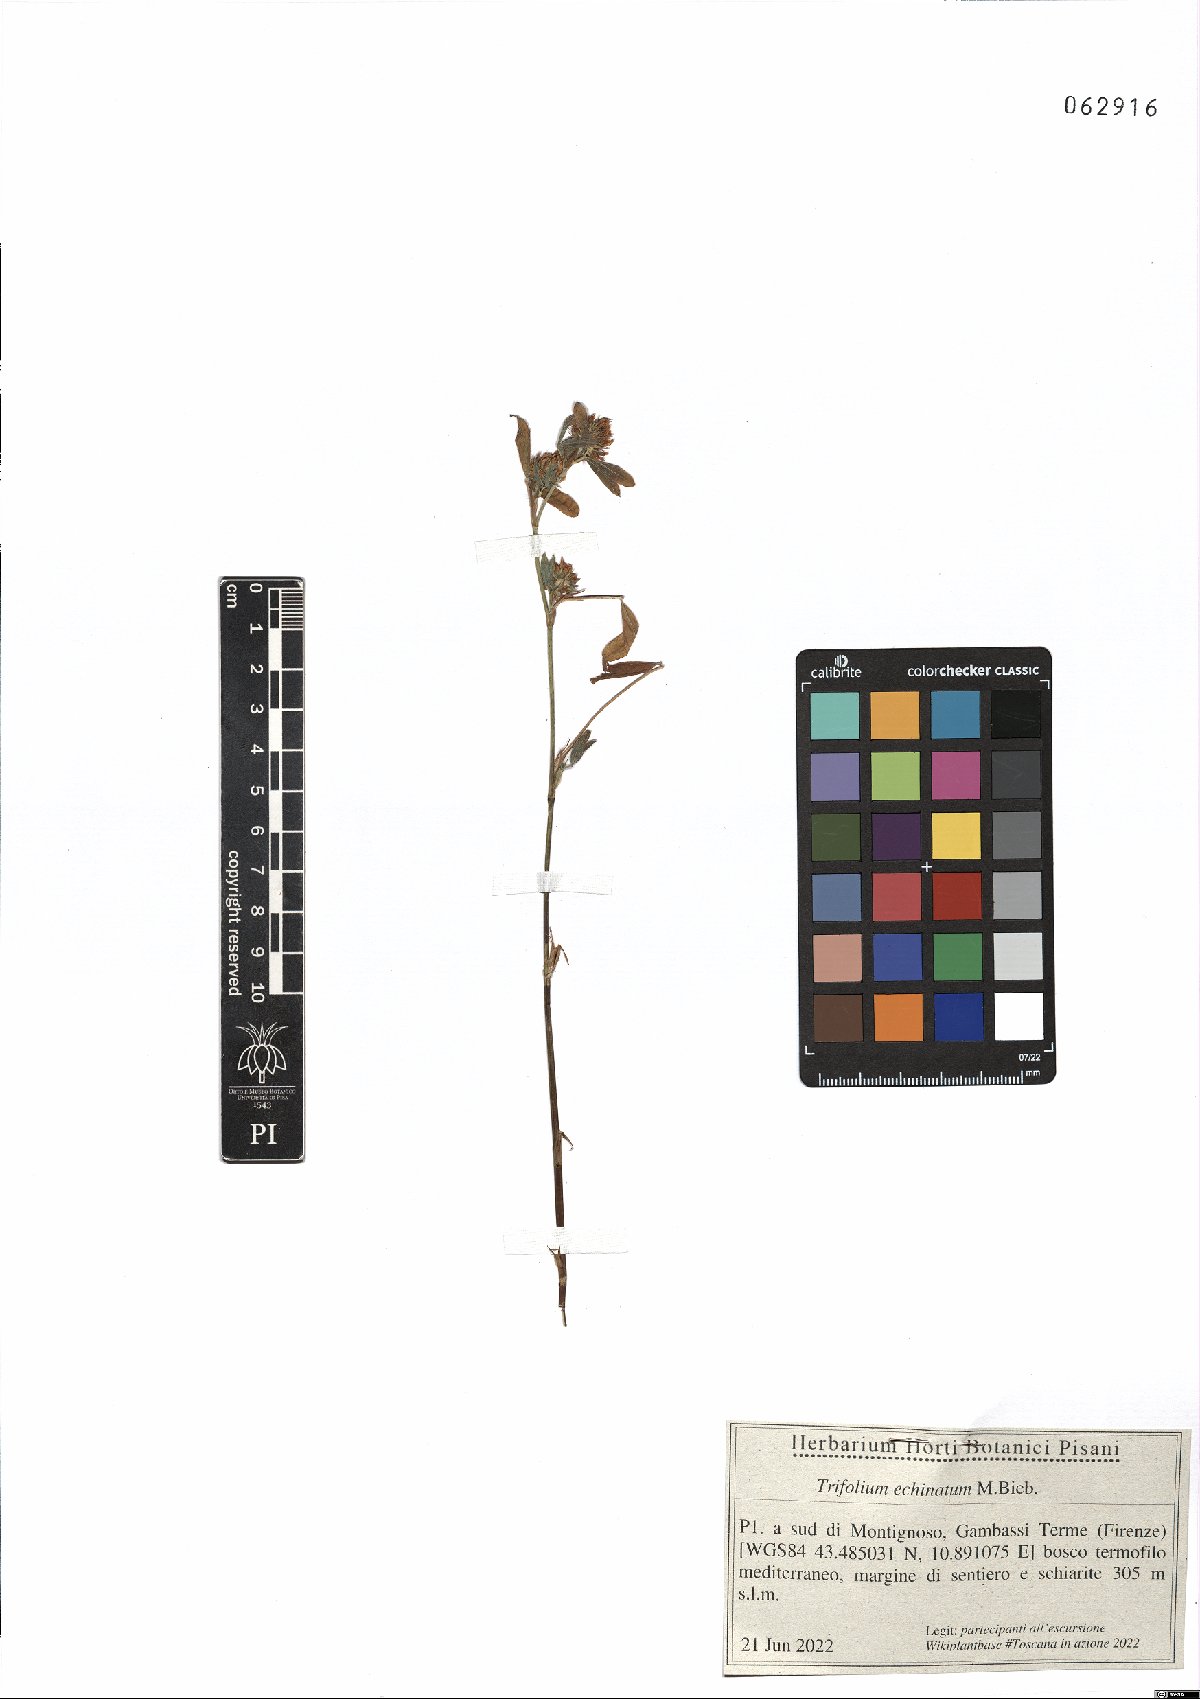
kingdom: Plantae
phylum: Tracheophyta
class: Magnoliopsida
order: Fabales
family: Fabaceae
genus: Trifolium
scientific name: Trifolium echinatum
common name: Hedgehog clover
